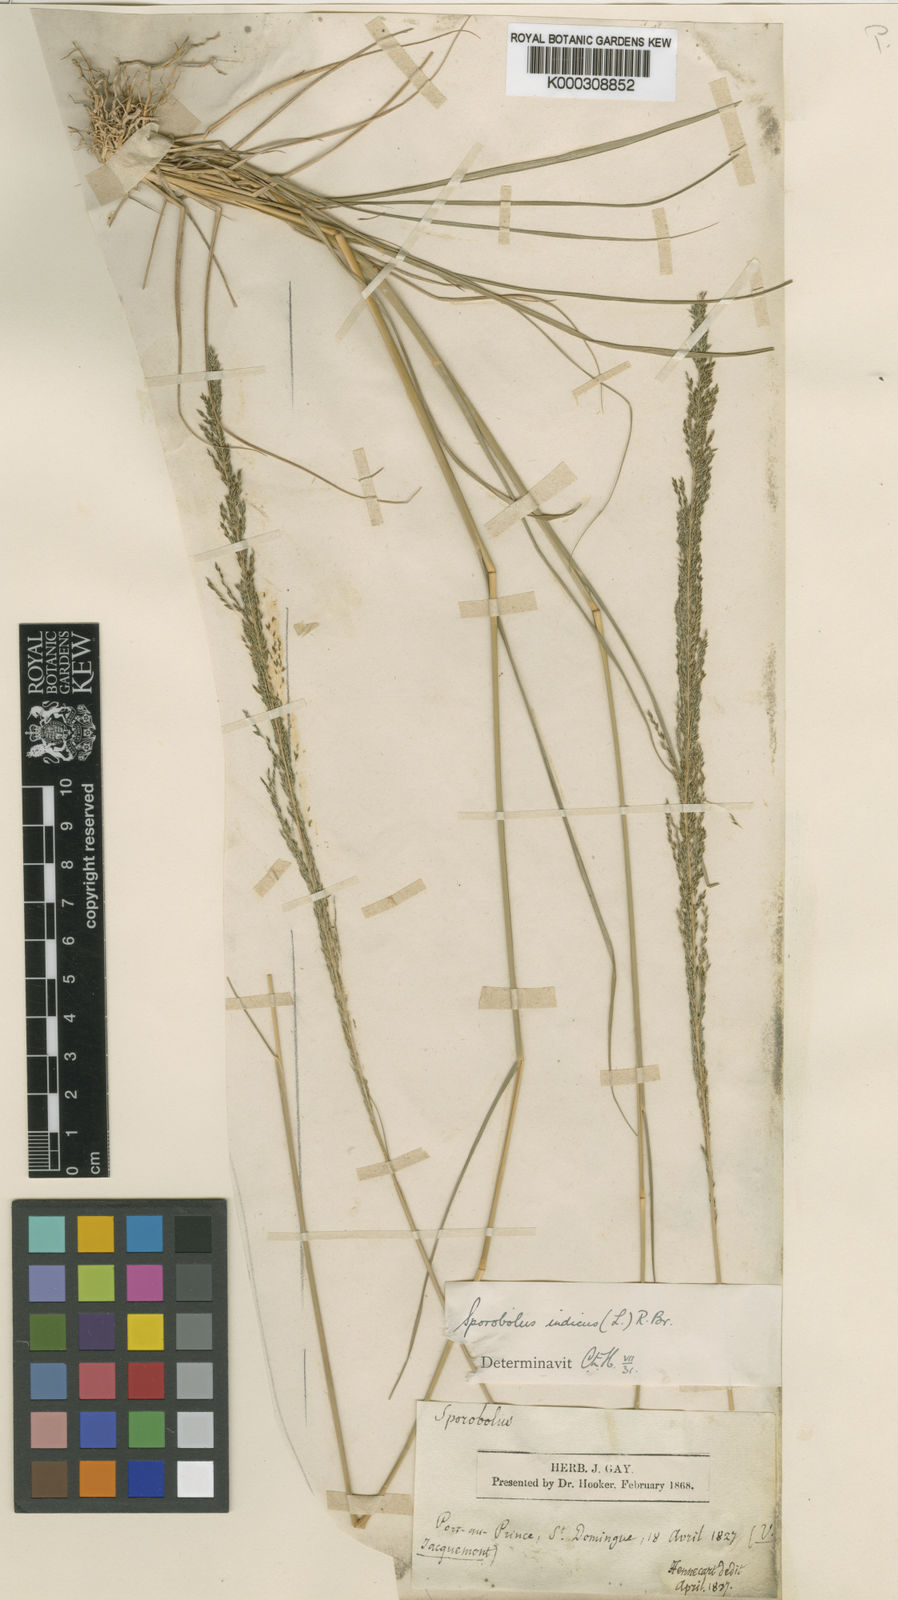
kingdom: Plantae
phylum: Tracheophyta
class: Liliopsida
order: Poales
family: Poaceae
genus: Sporobolus
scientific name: Sporobolus pyramidalis
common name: West indian dropseed
